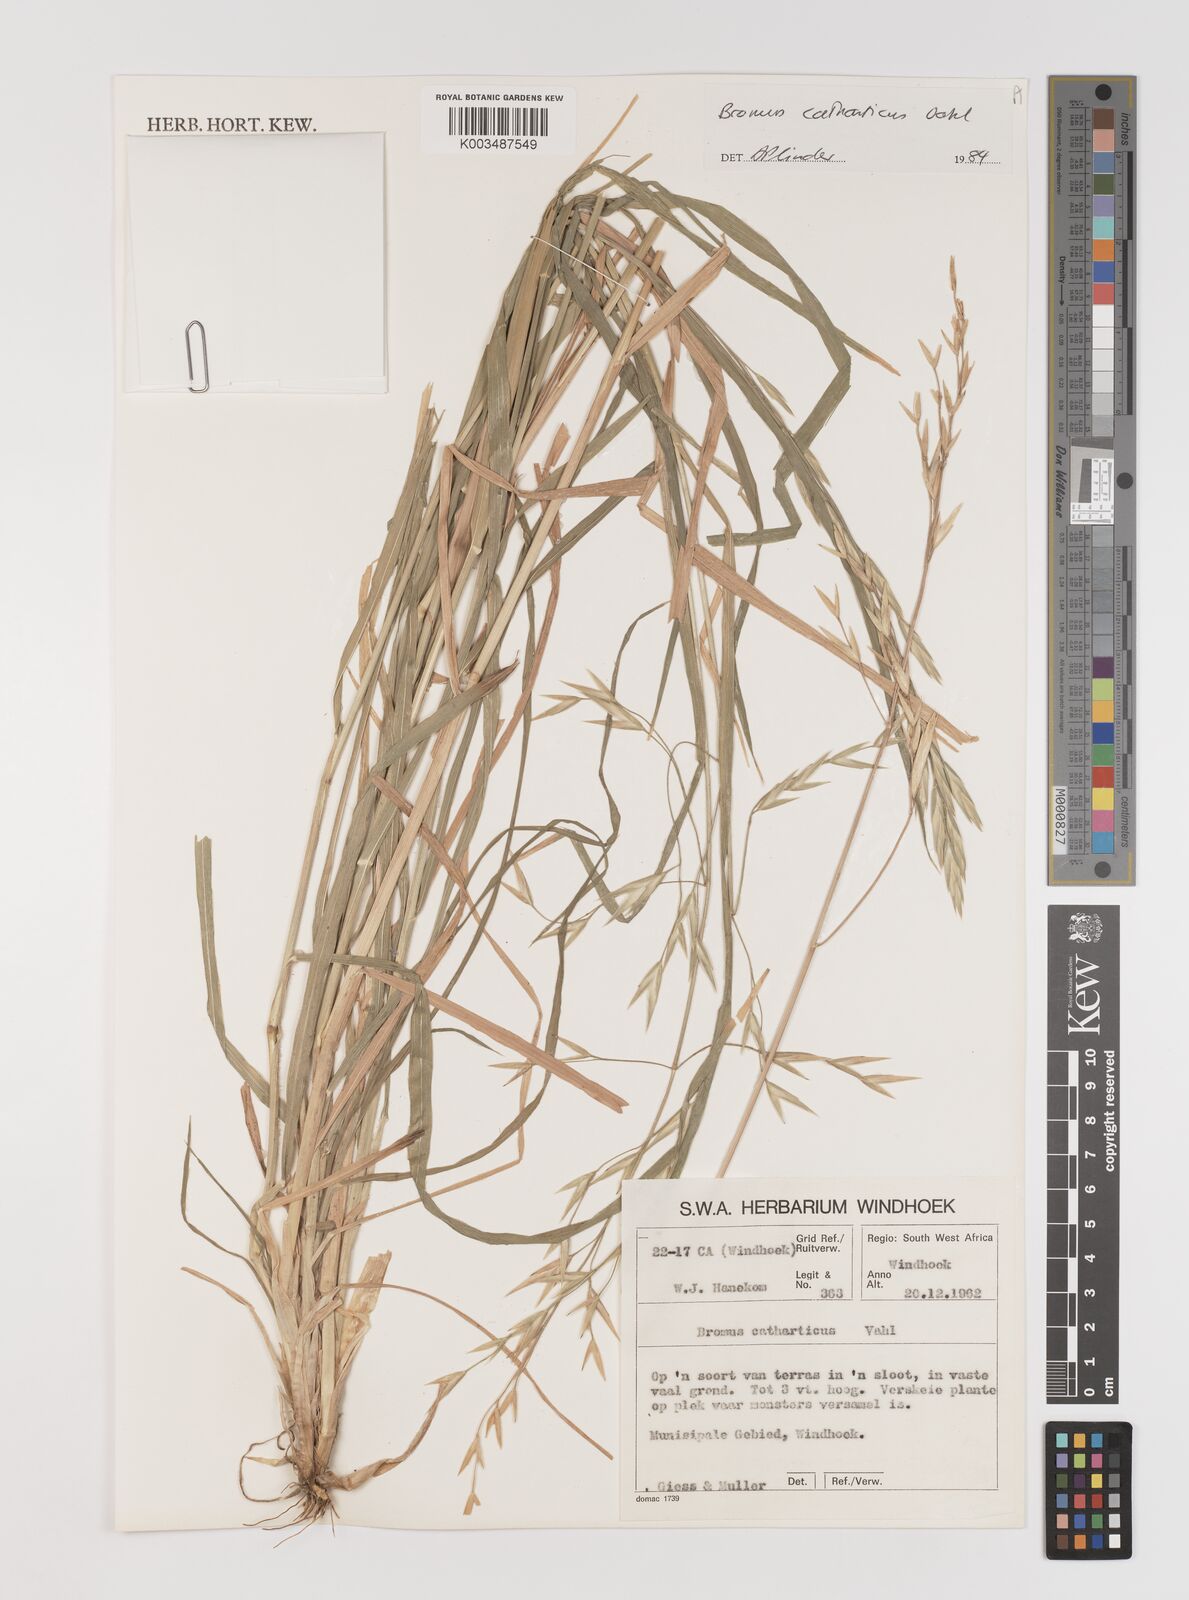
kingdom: Plantae
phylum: Tracheophyta
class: Liliopsida
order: Poales
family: Poaceae
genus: Bromus
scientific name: Bromus catharticus
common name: Rescuegrass
